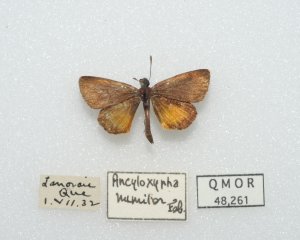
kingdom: Animalia
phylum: Arthropoda
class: Insecta
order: Lepidoptera
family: Hesperiidae
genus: Ancyloxypha
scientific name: Ancyloxypha numitor
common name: Least Skipper
